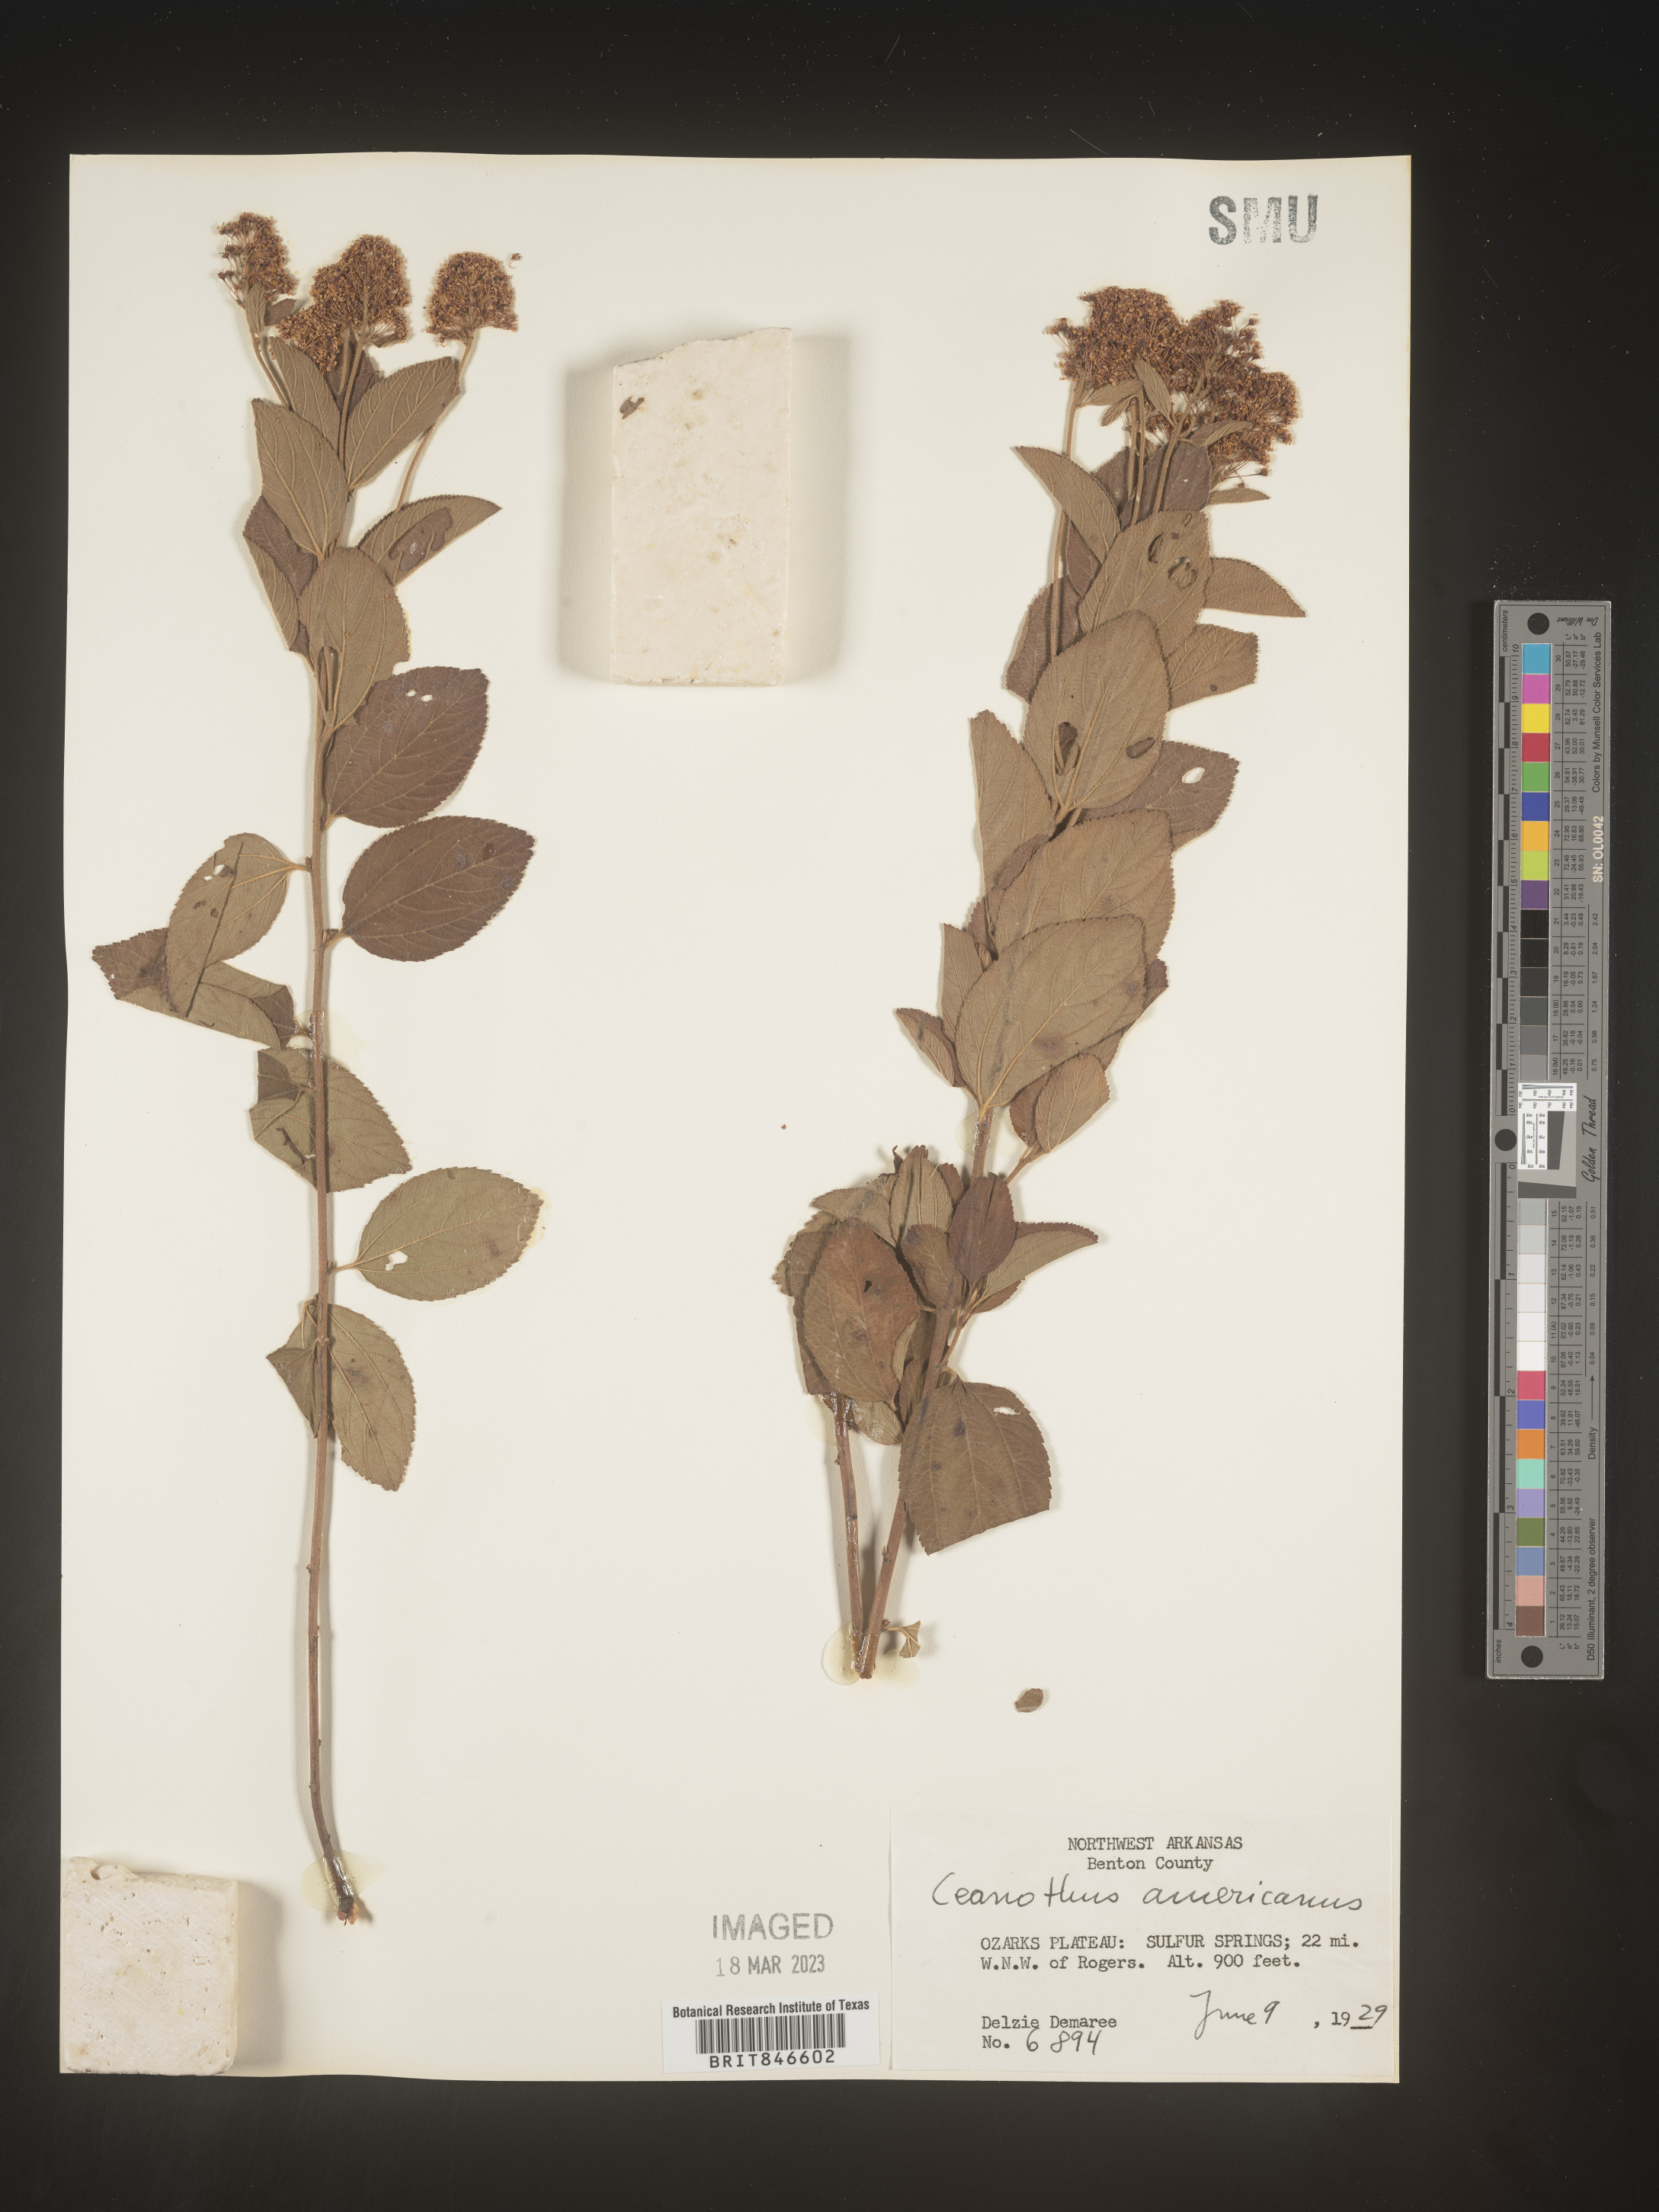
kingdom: Plantae
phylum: Tracheophyta
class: Magnoliopsida
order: Rosales
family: Rhamnaceae
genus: Ceanothus
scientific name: Ceanothus americanus
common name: Redroot
